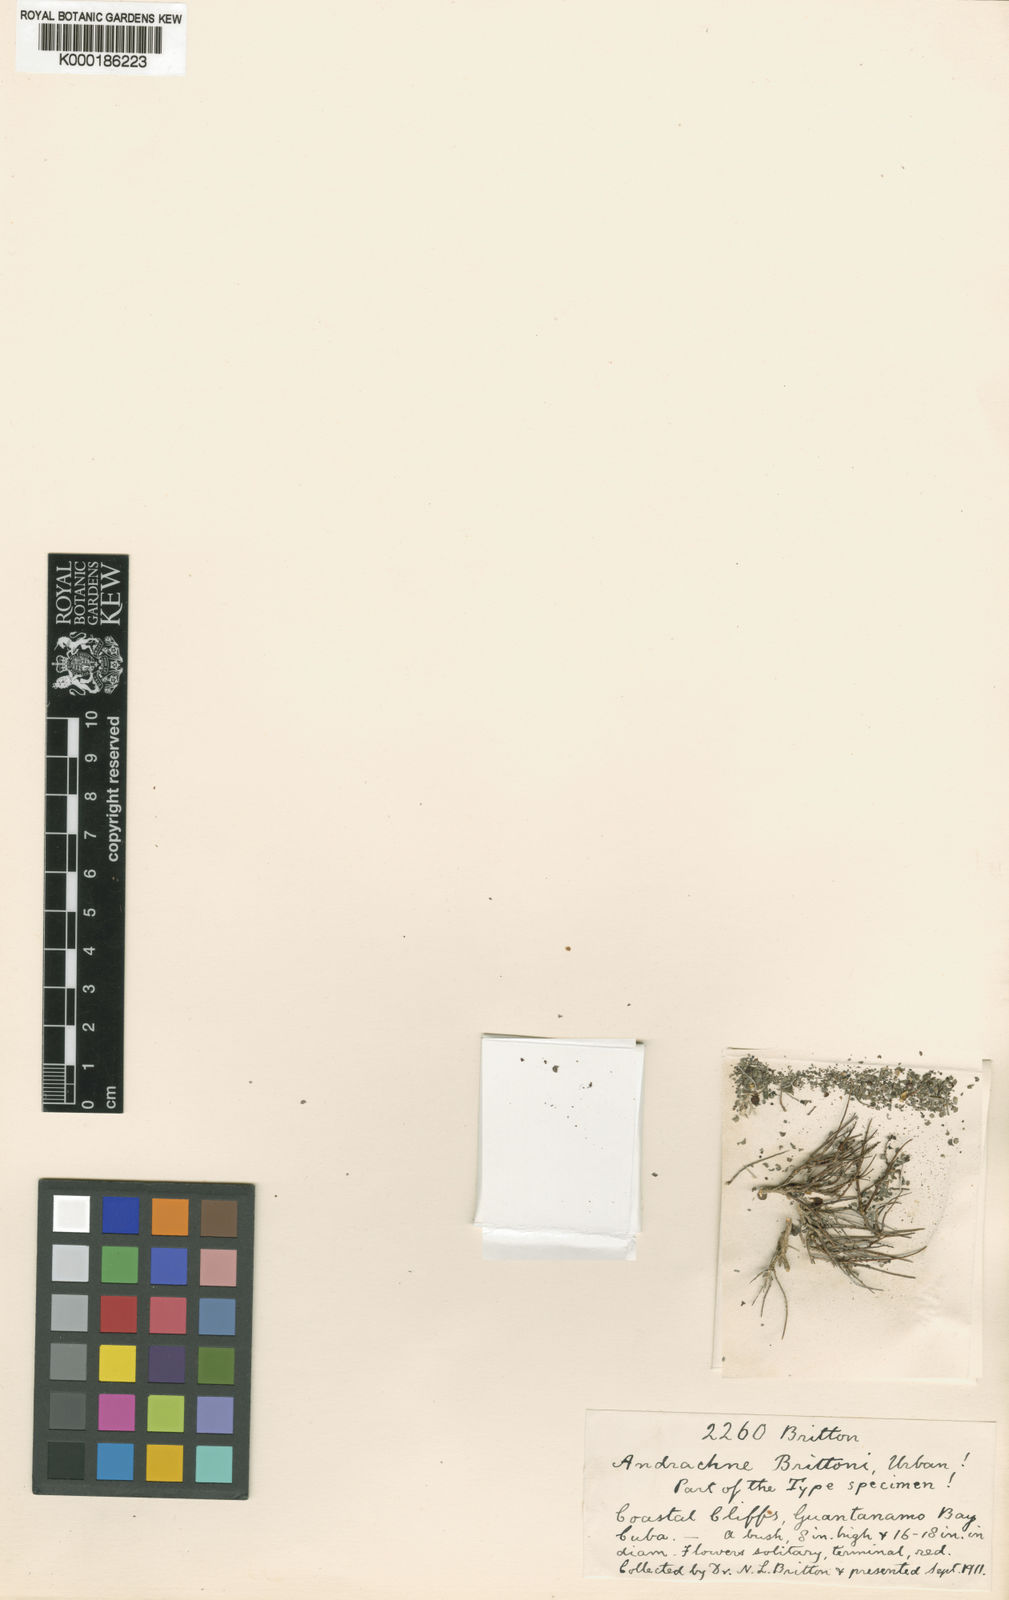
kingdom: Plantae
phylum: Tracheophyta
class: Magnoliopsida
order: Malpighiales
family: Phyllanthaceae
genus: Andrachne
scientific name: Andrachne brittonii
